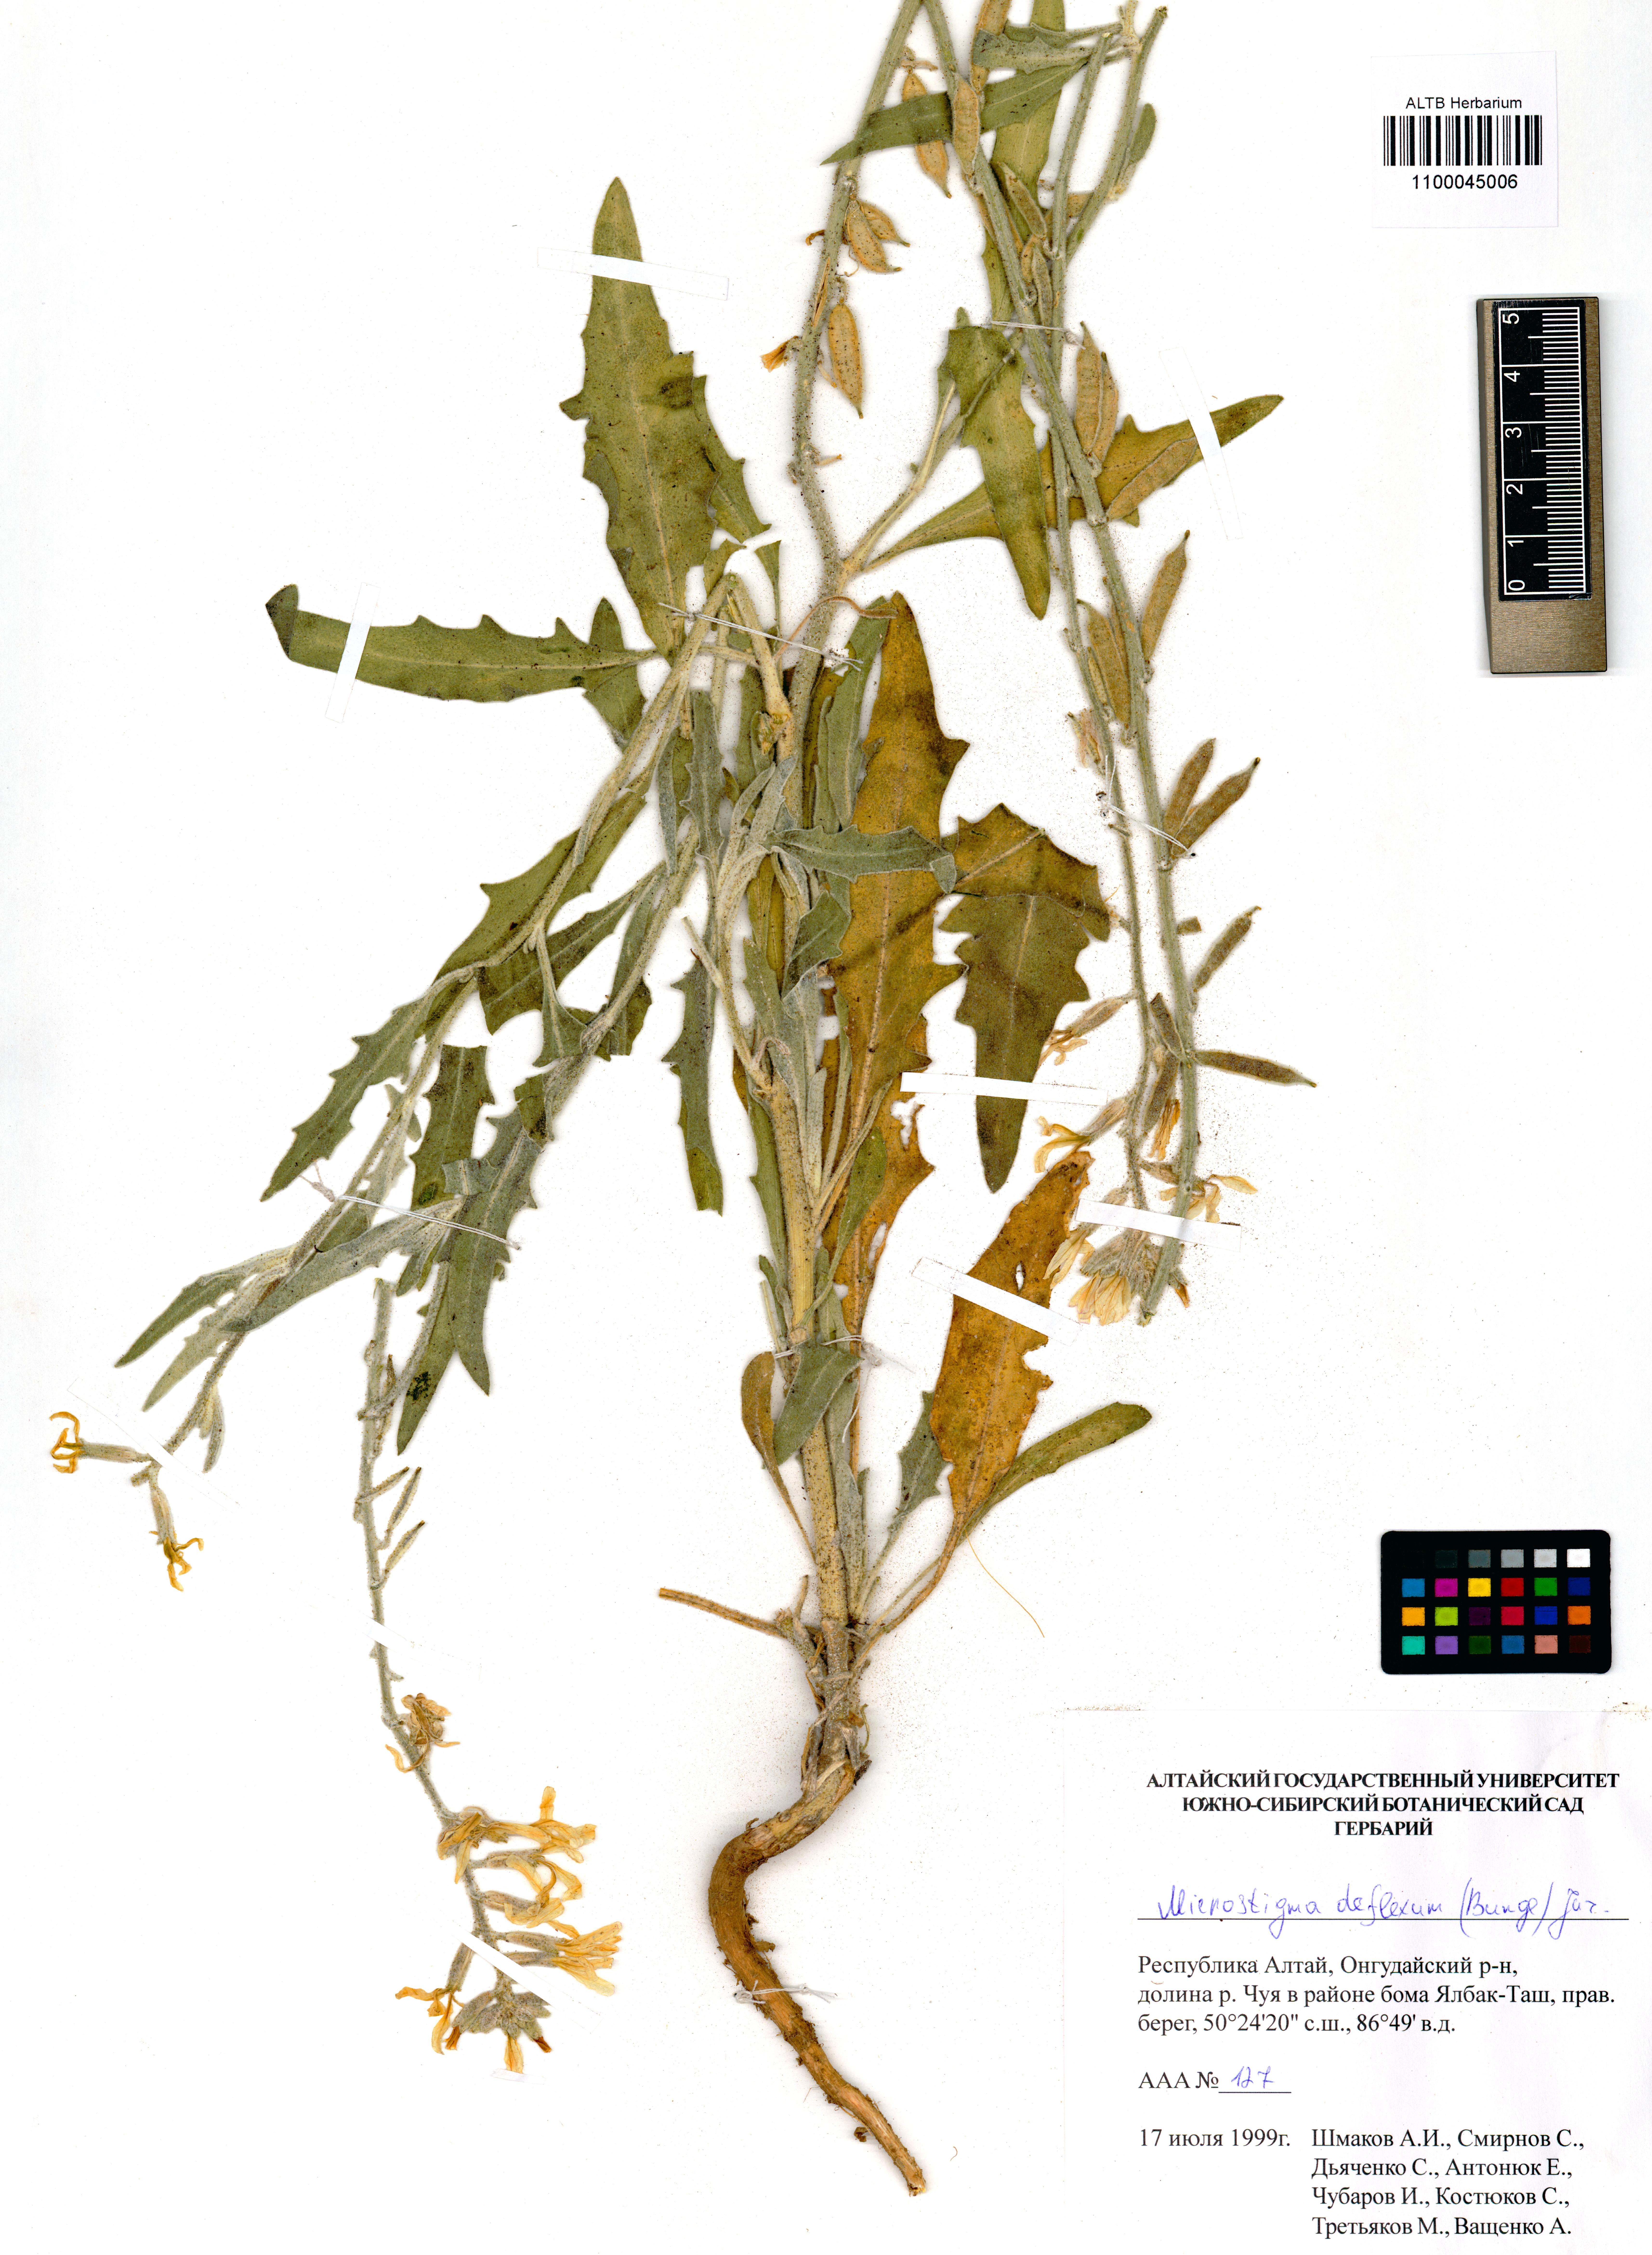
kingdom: Plantae
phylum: Tracheophyta
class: Magnoliopsida
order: Brassicales
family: Brassicaceae
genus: Microstigma
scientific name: Microstigma deflexum
